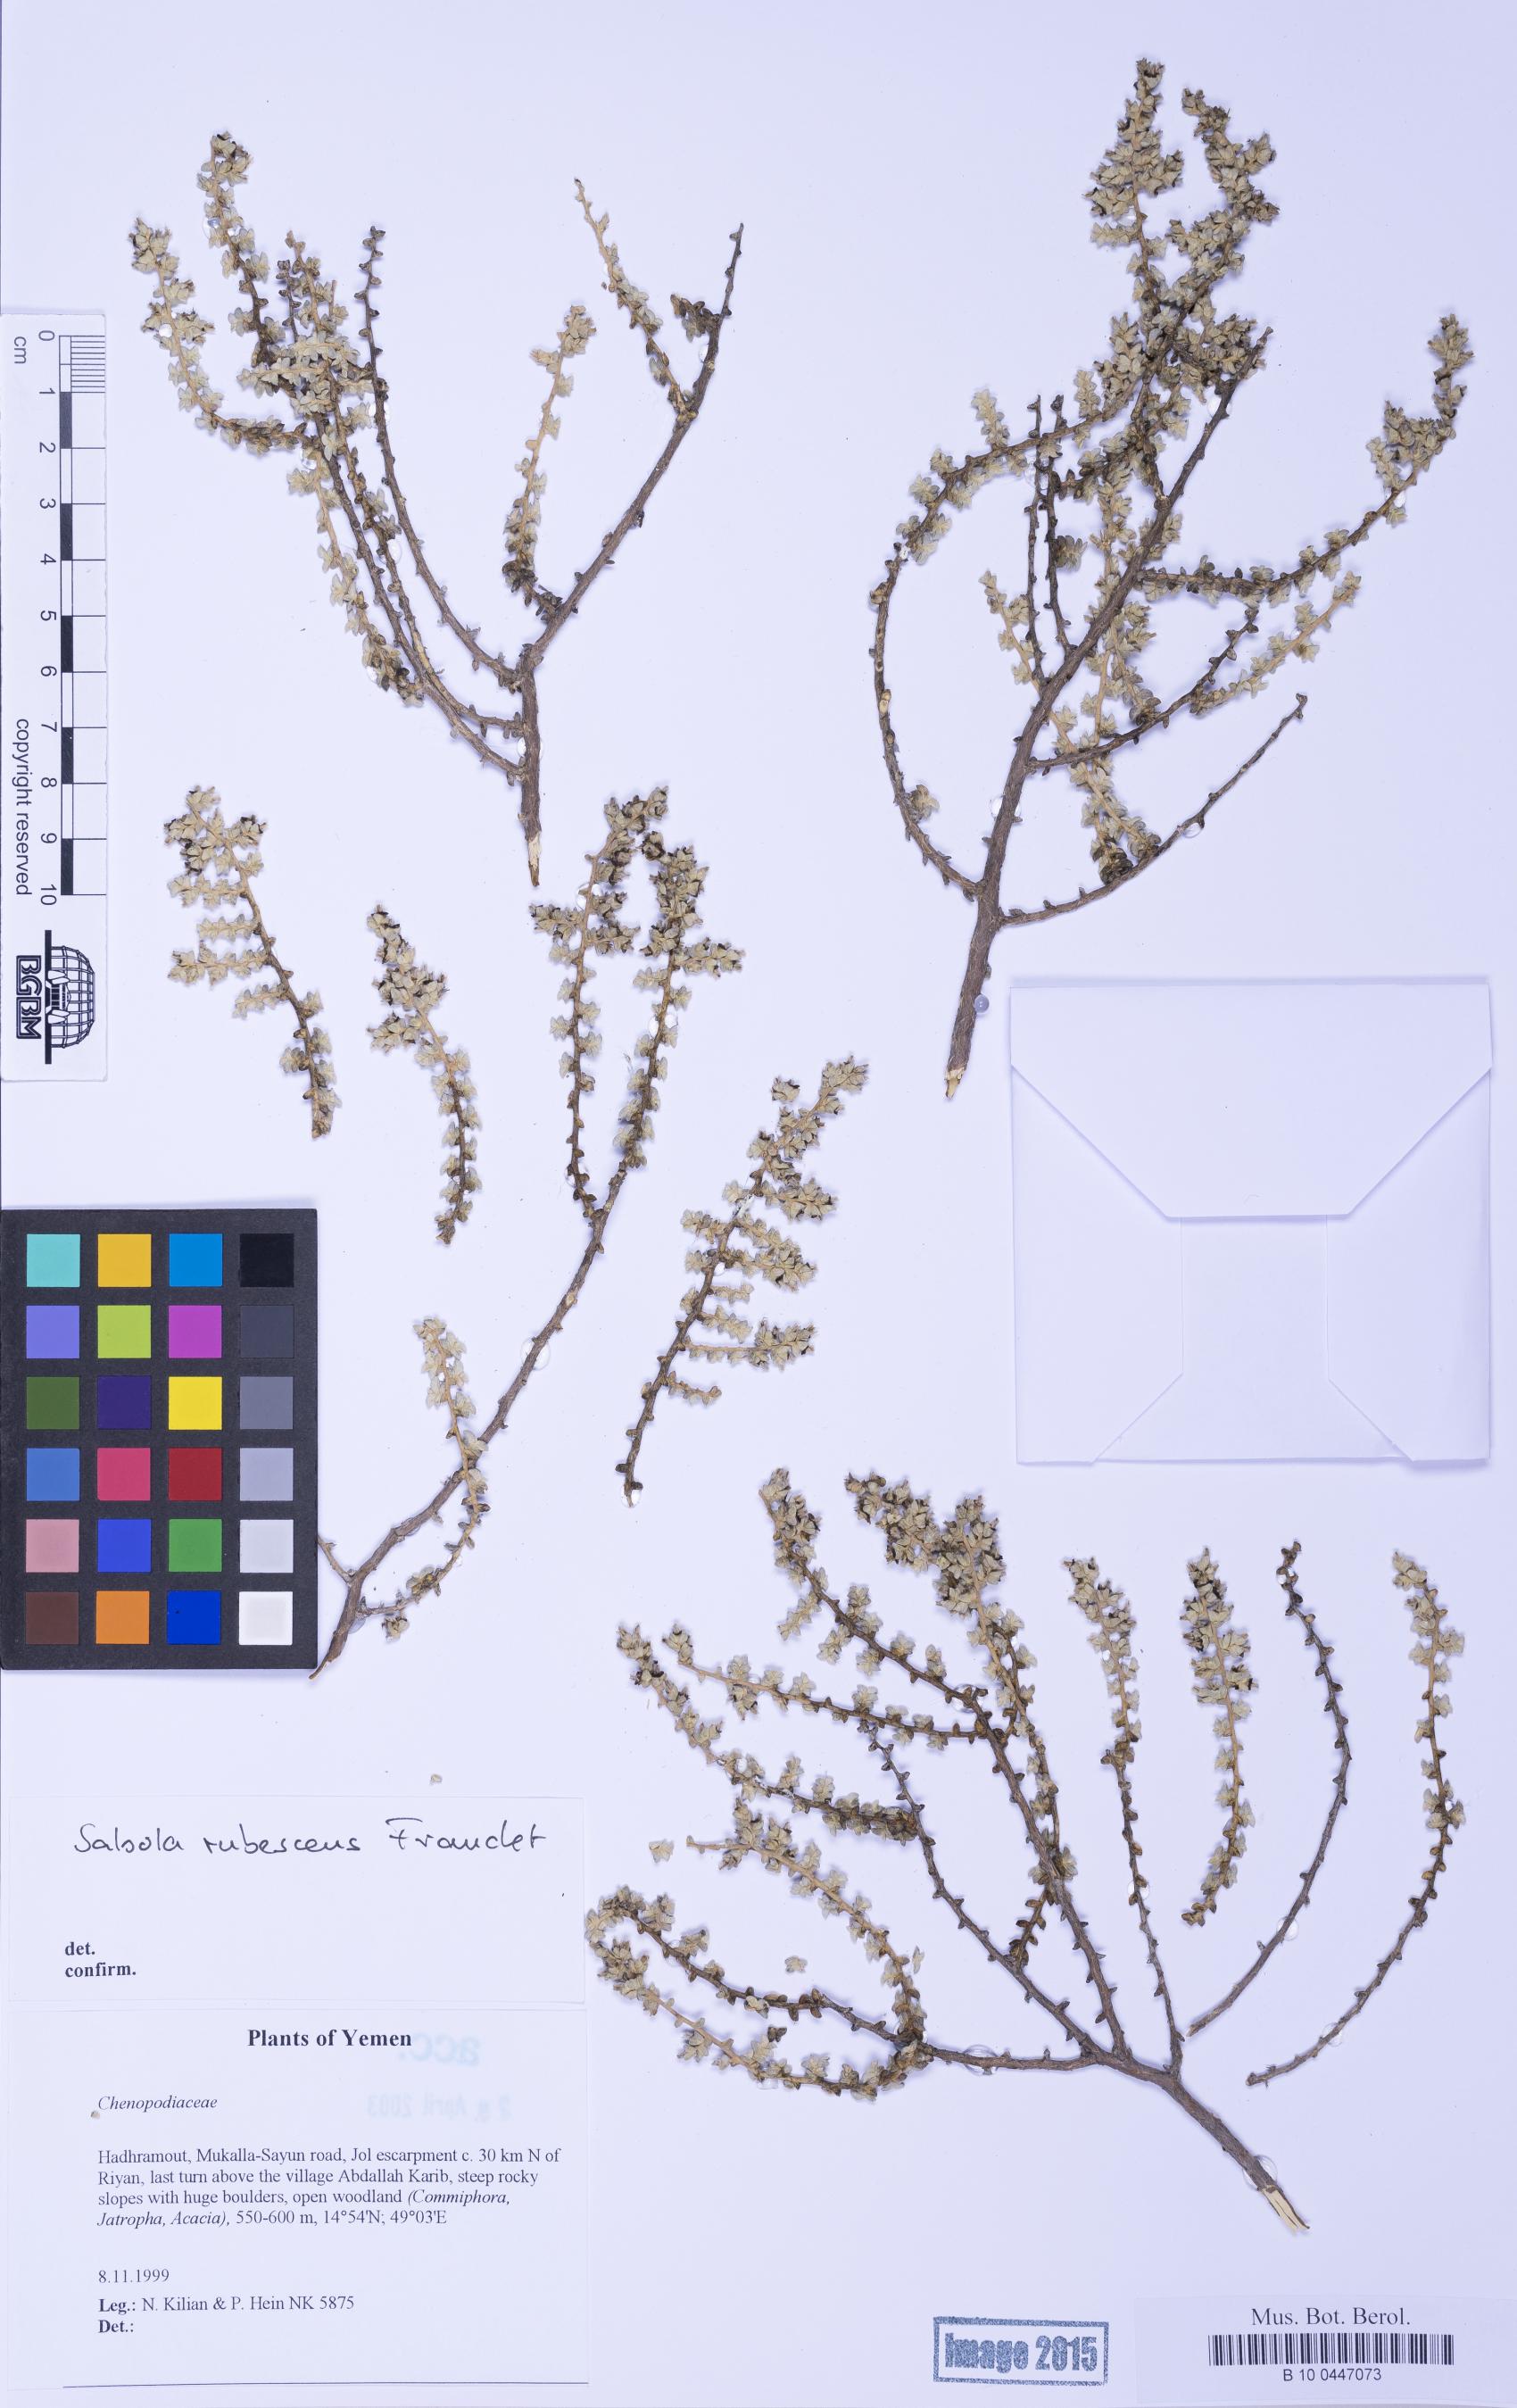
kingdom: Plantae
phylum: Tracheophyta
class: Magnoliopsida
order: Caryophyllales
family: Amaranthaceae
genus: Kaviria
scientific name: Kaviria rubescens
